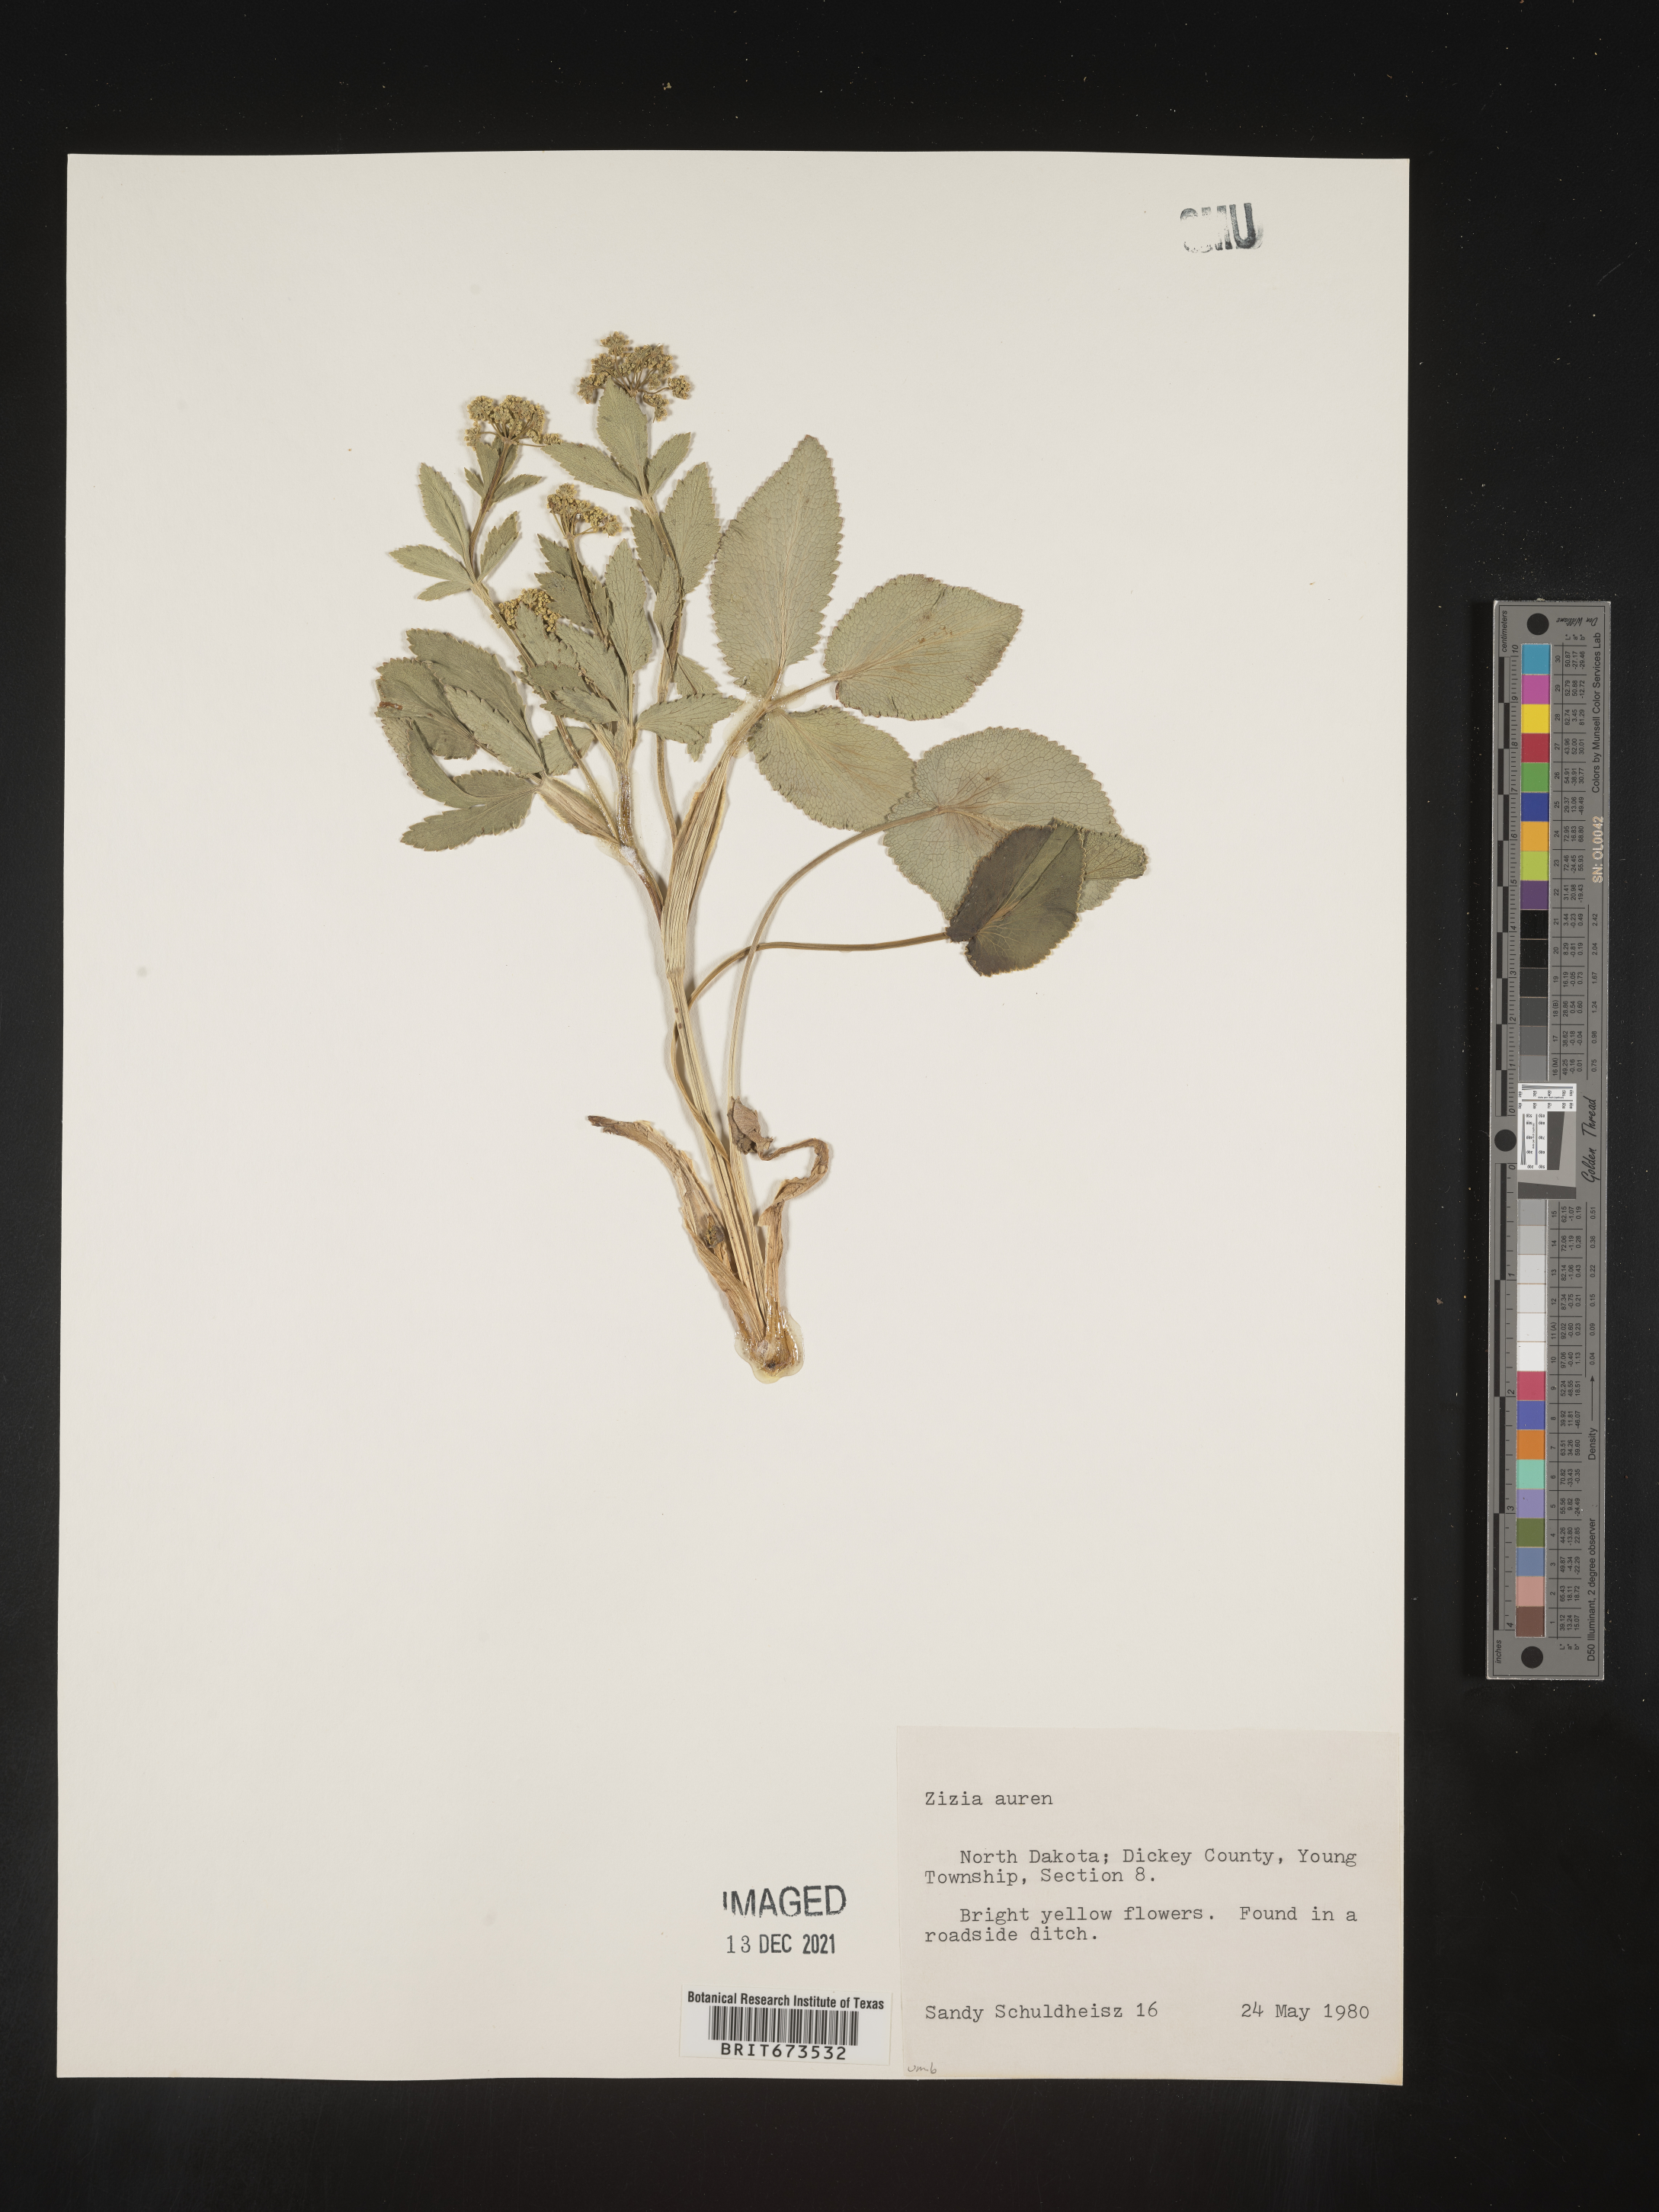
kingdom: Plantae
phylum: Tracheophyta
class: Magnoliopsida
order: Apiales
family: Apiaceae
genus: Zizia
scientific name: Zizia aurea
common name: Golden alexanders
